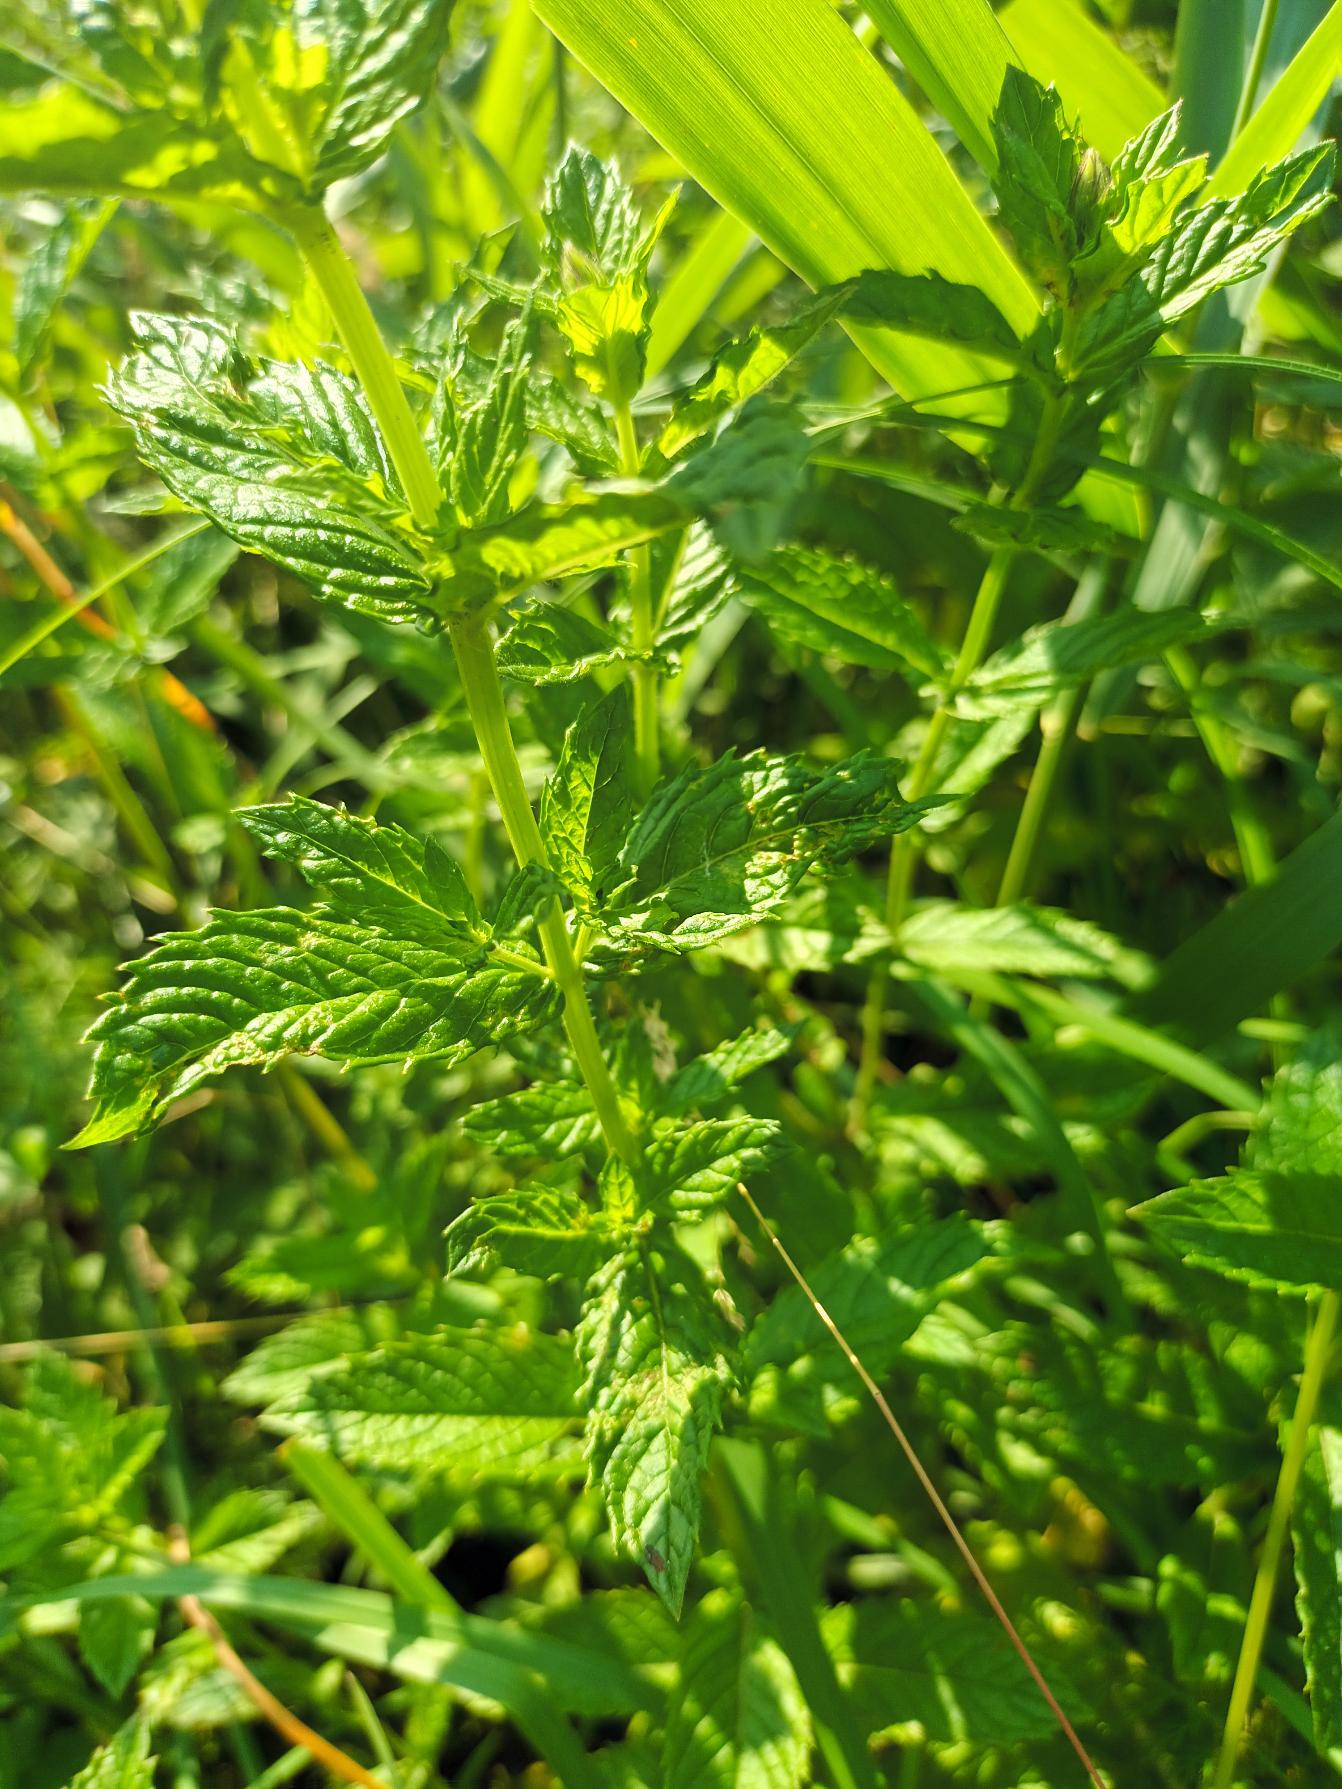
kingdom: Plantae
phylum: Tracheophyta
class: Magnoliopsida
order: Lamiales
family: Lamiaceae
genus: Mentha
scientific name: Mentha spicata
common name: Grøn mynte
